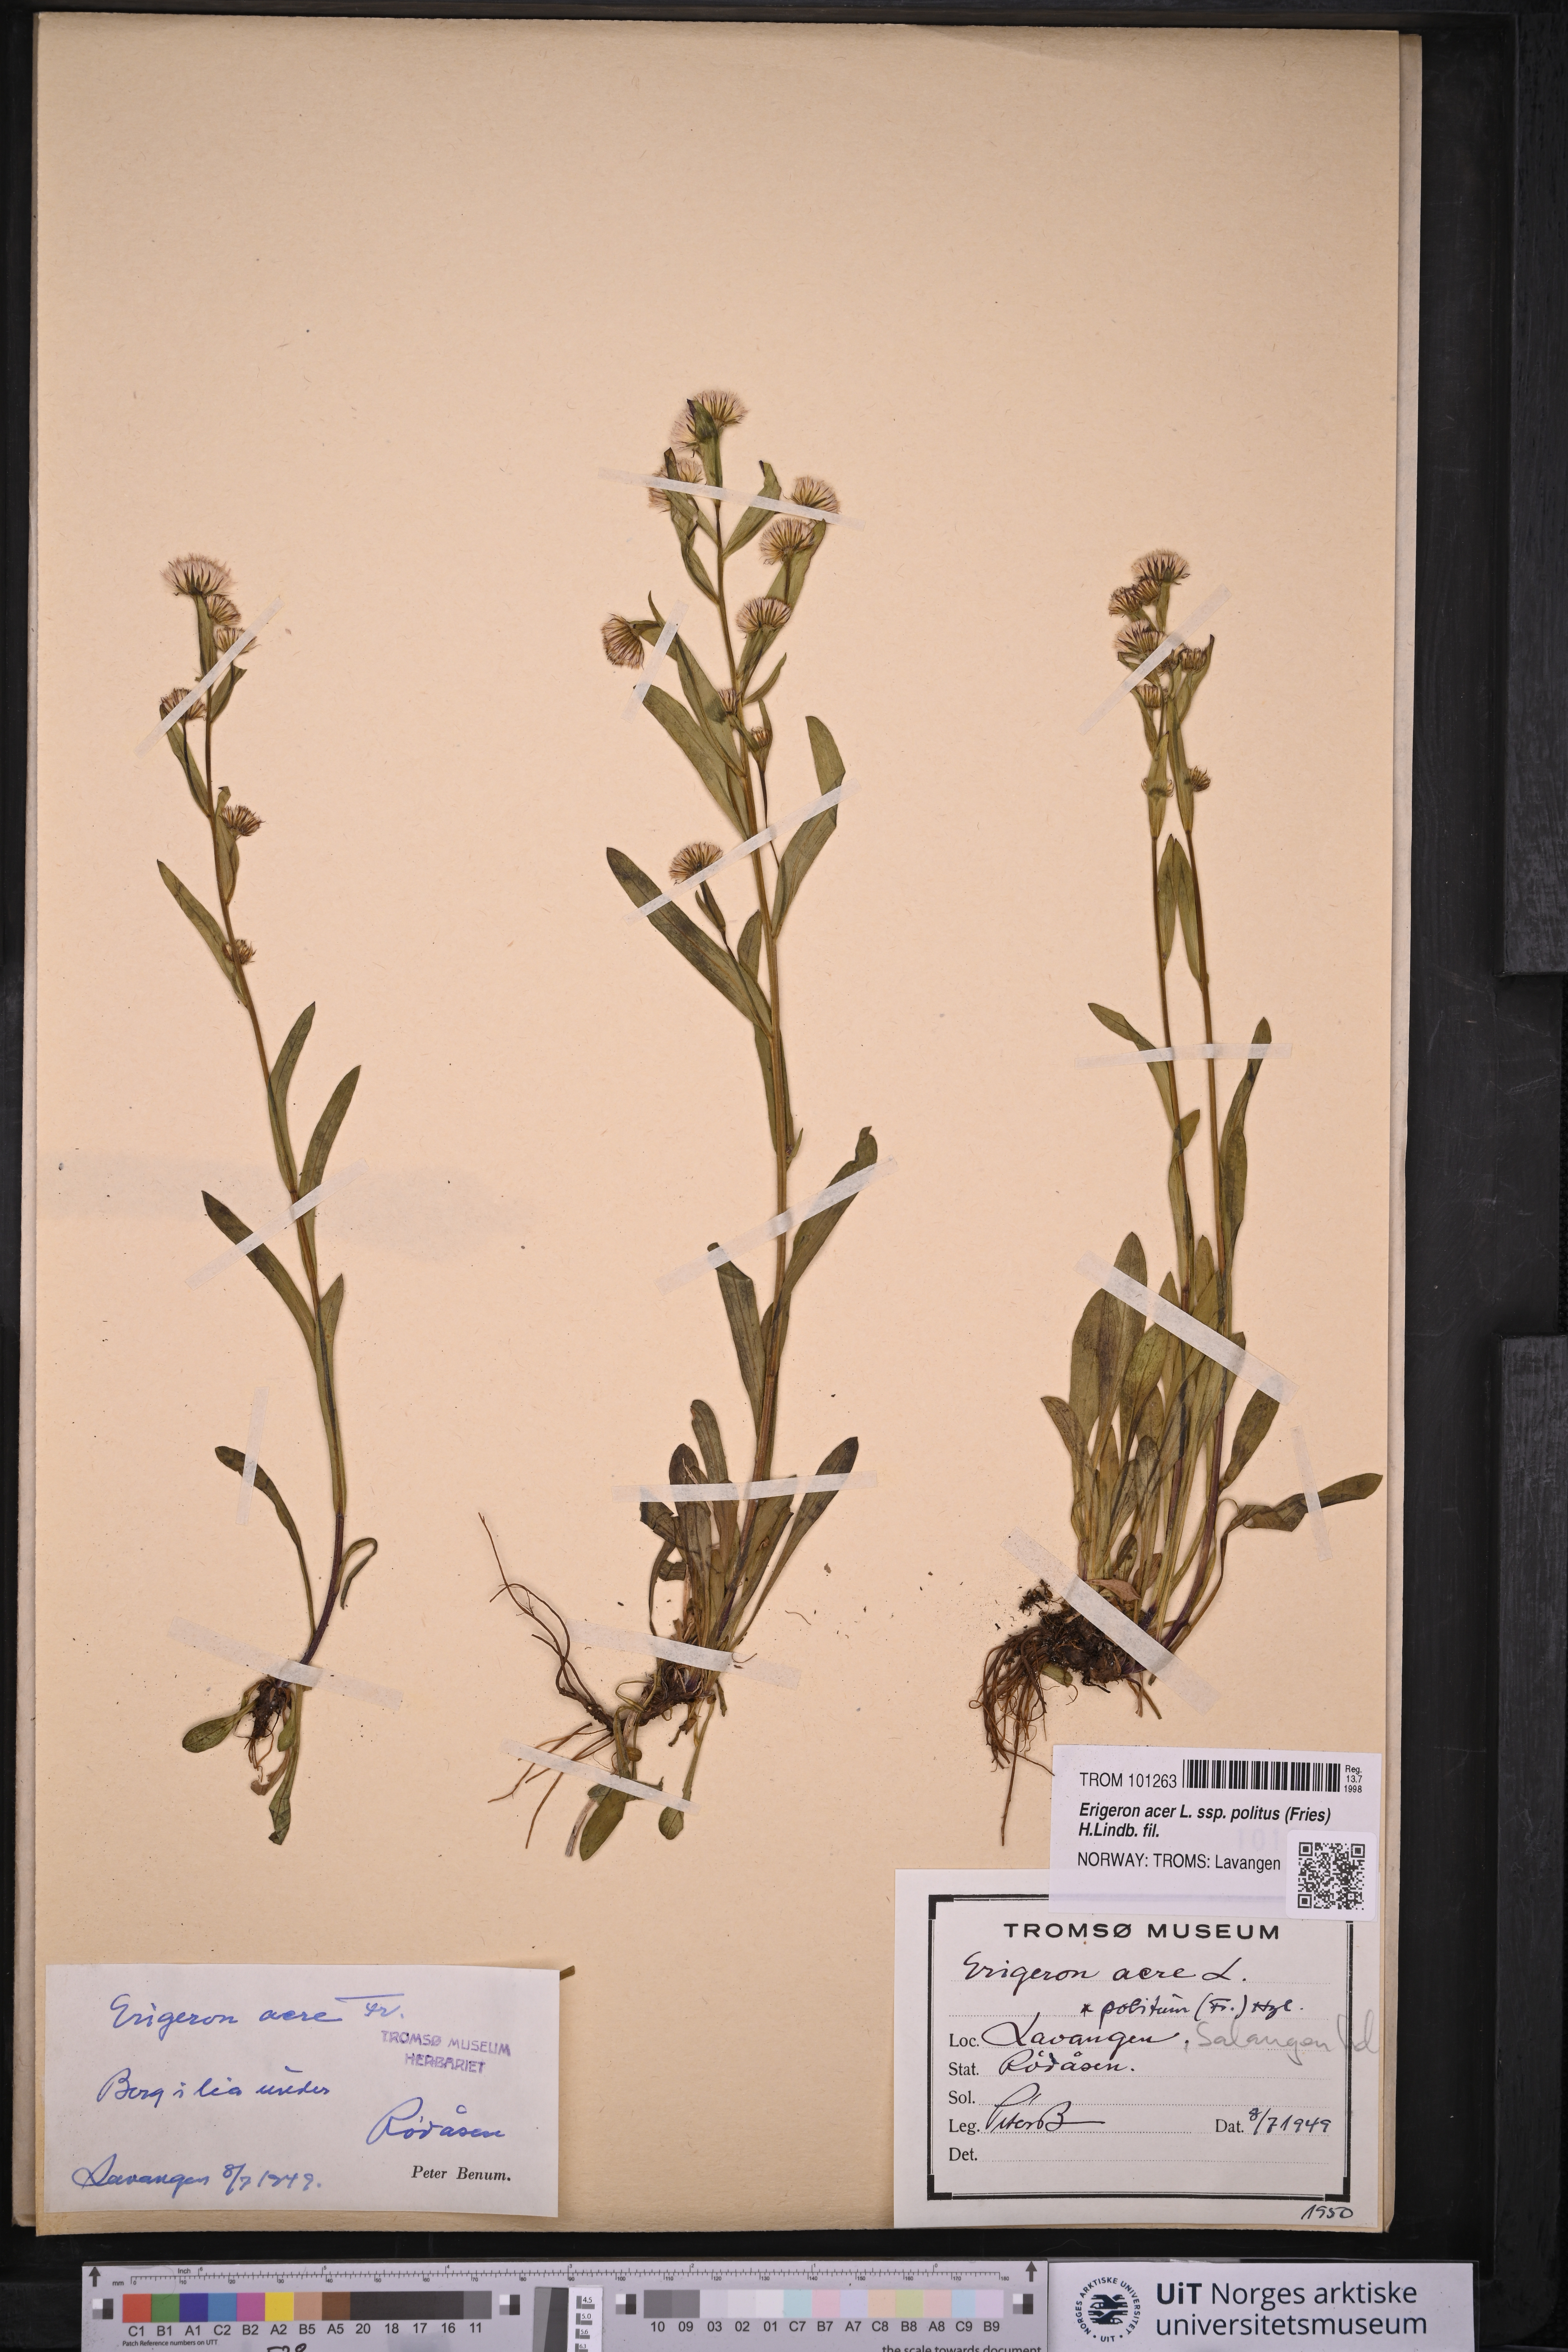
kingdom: Plantae
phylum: Tracheophyta
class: Magnoliopsida
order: Asterales
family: Asteraceae
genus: Erigeron
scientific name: Erigeron politus
